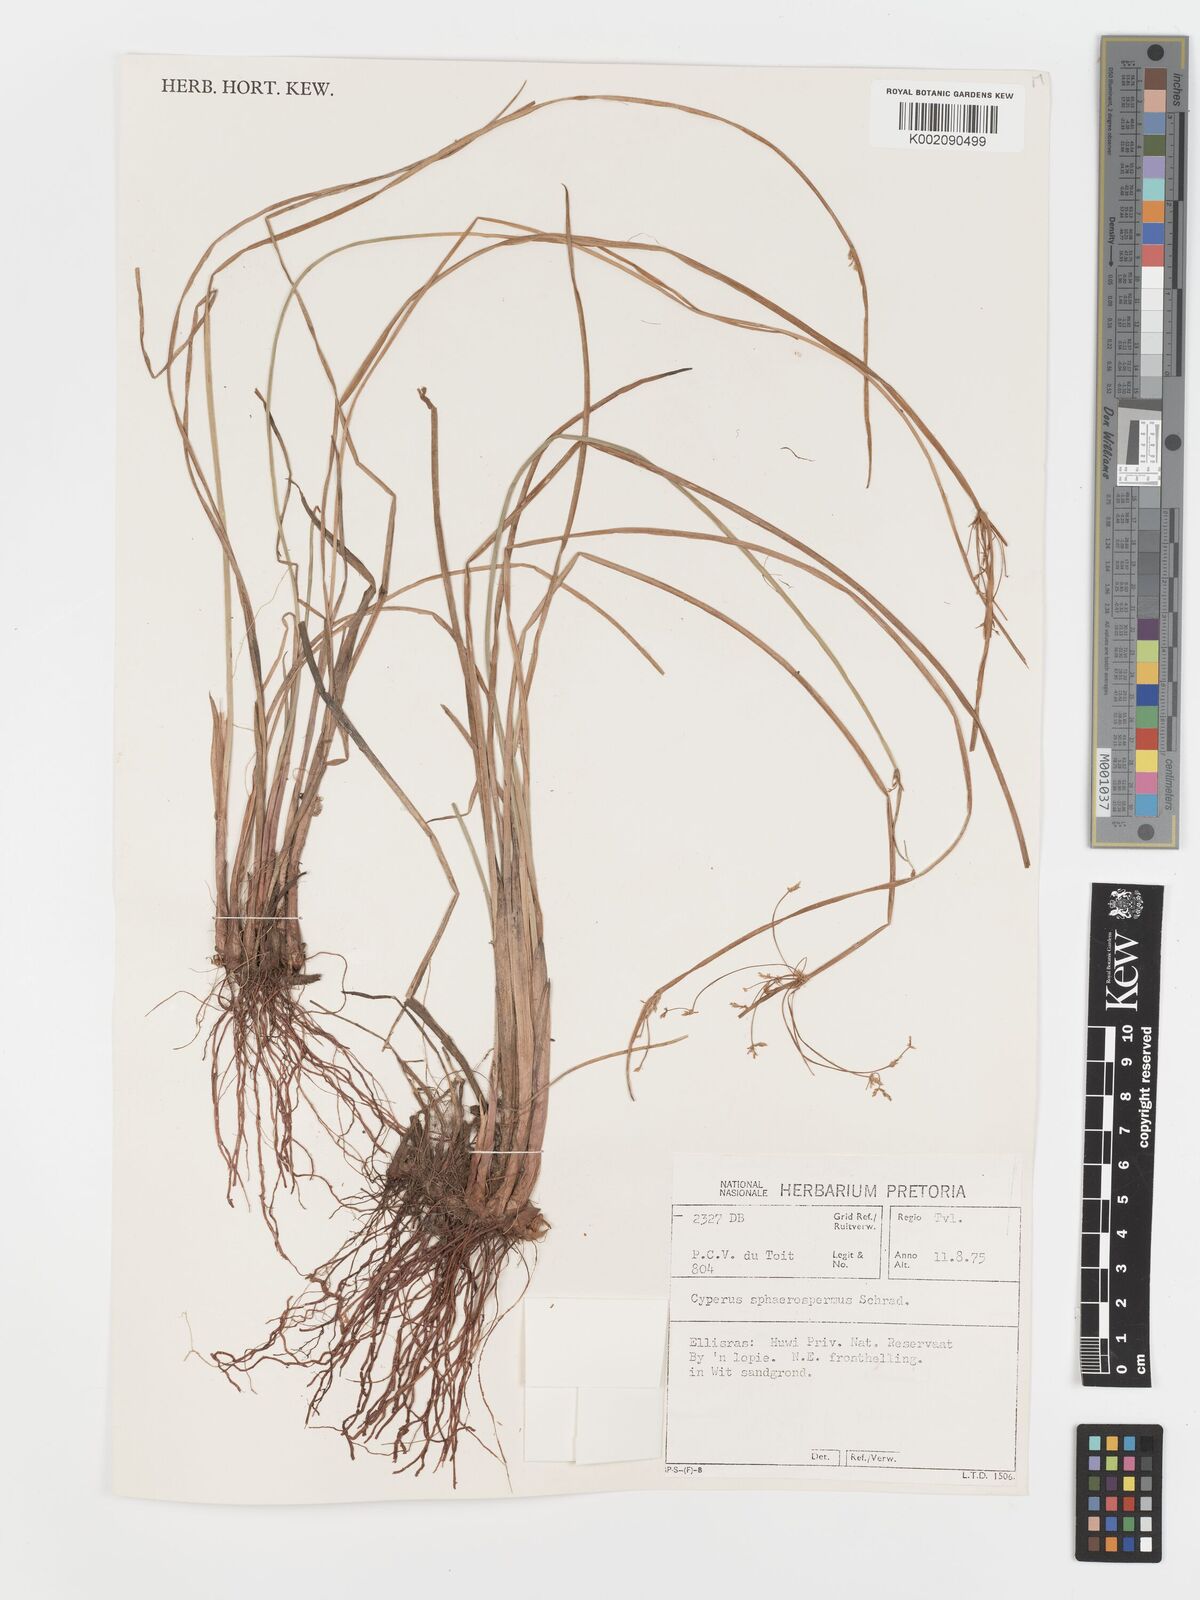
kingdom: Plantae
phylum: Tracheophyta
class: Liliopsida
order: Poales
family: Cyperaceae
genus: Cyperus
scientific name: Cyperus sphaerospermus
